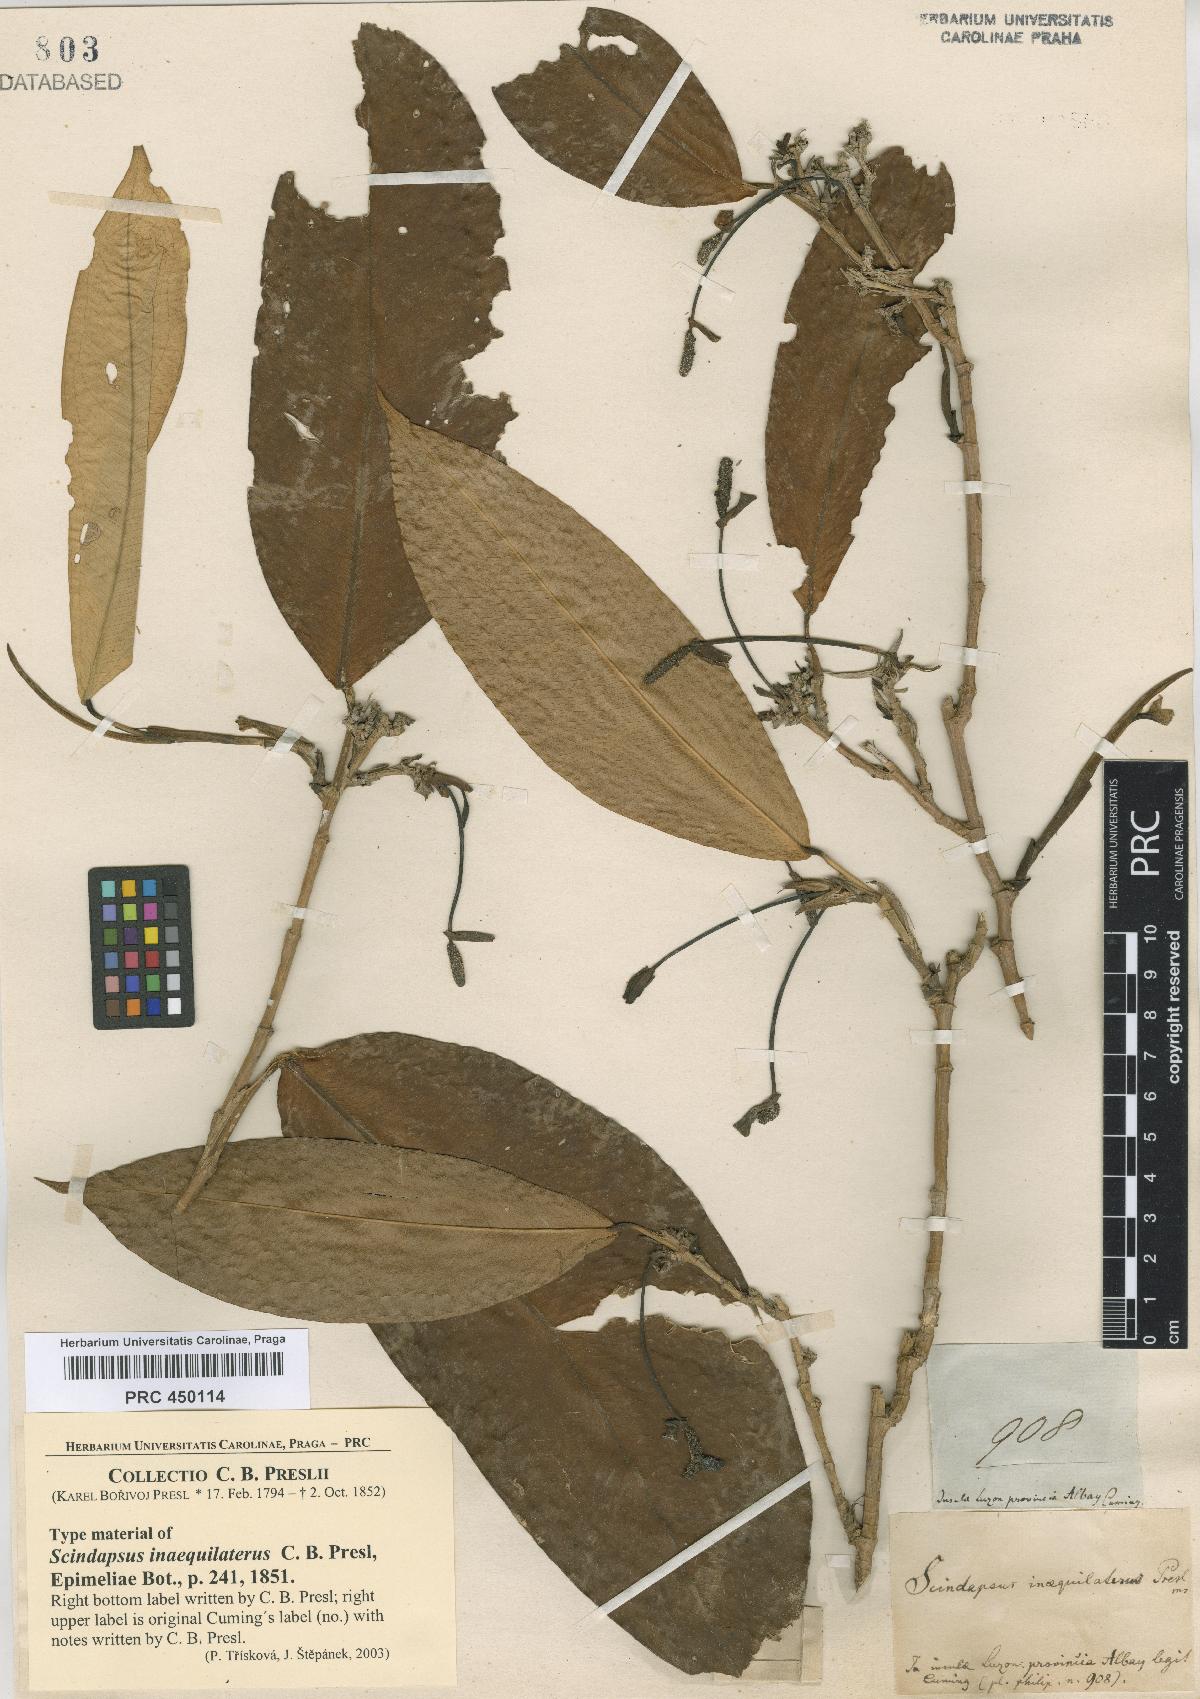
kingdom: Plantae
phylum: Tracheophyta
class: Liliopsida
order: Alismatales
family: Araceae
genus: Pothos
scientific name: Pothos inaequilaterus
